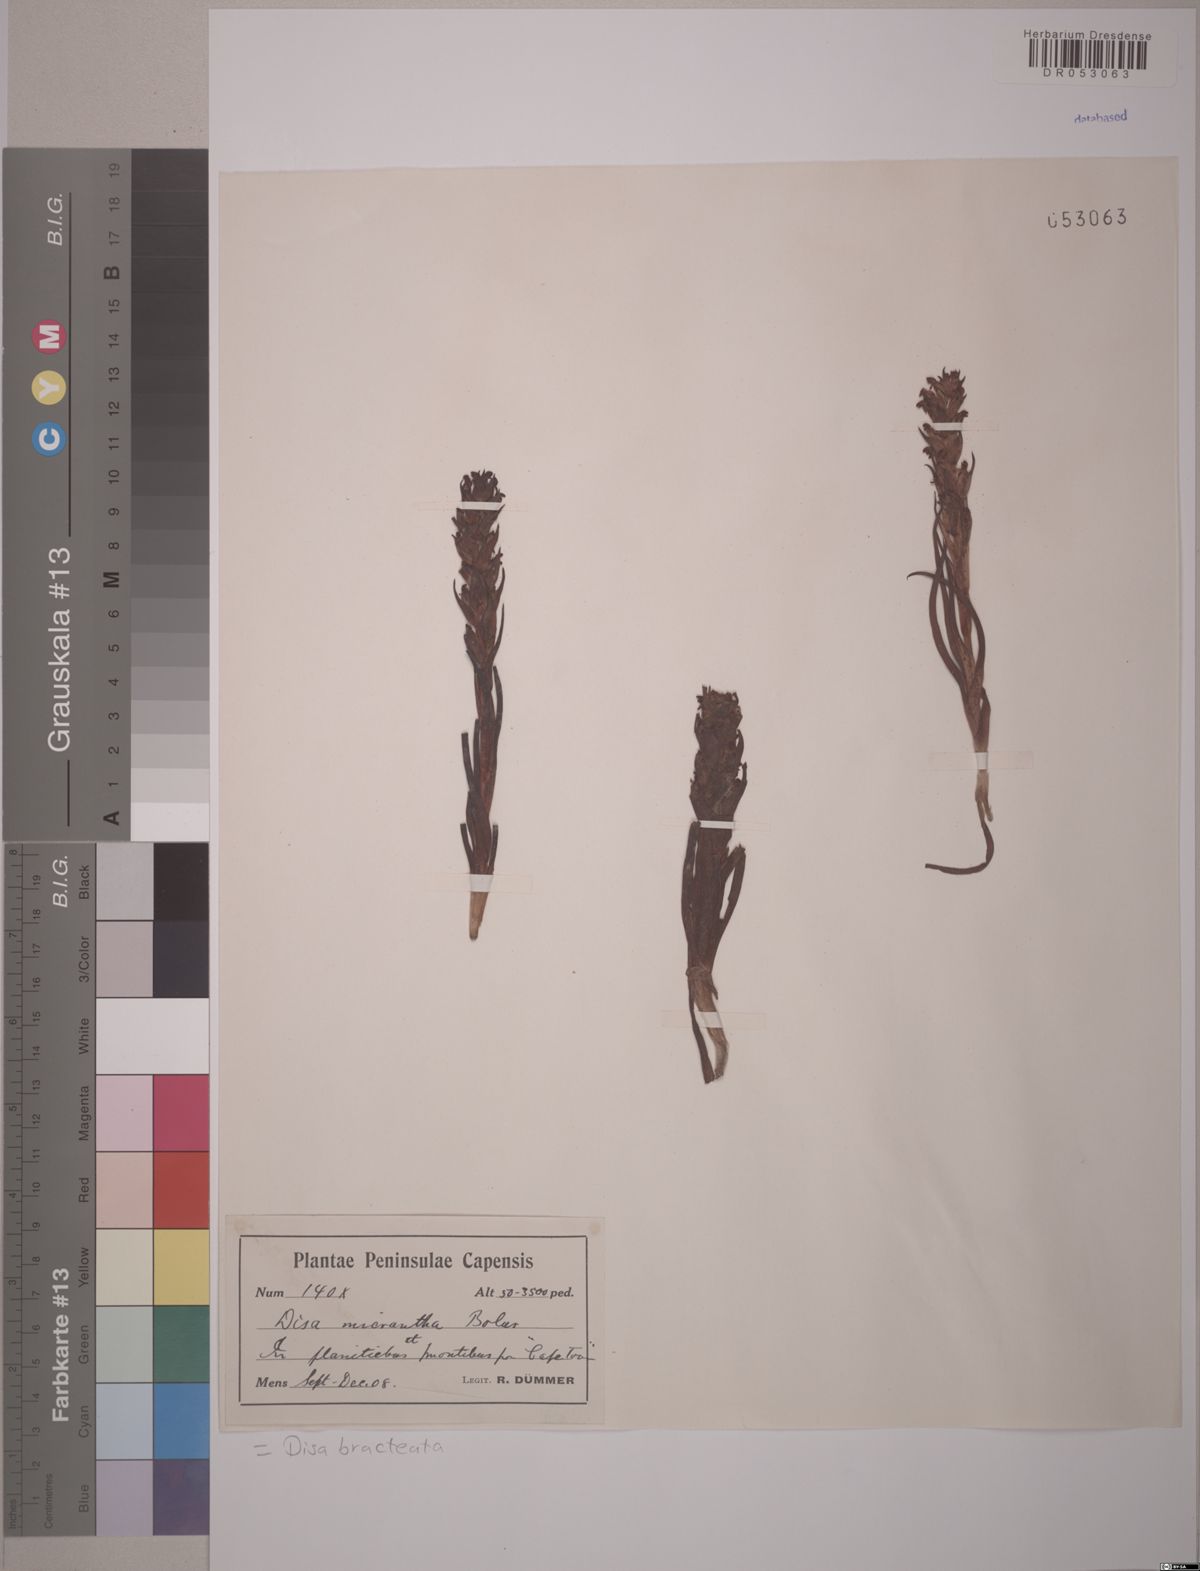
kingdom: Plantae
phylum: Tracheophyta
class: Liliopsida
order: Asparagales
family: Orchidaceae
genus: Disa
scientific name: Disa bracteata
